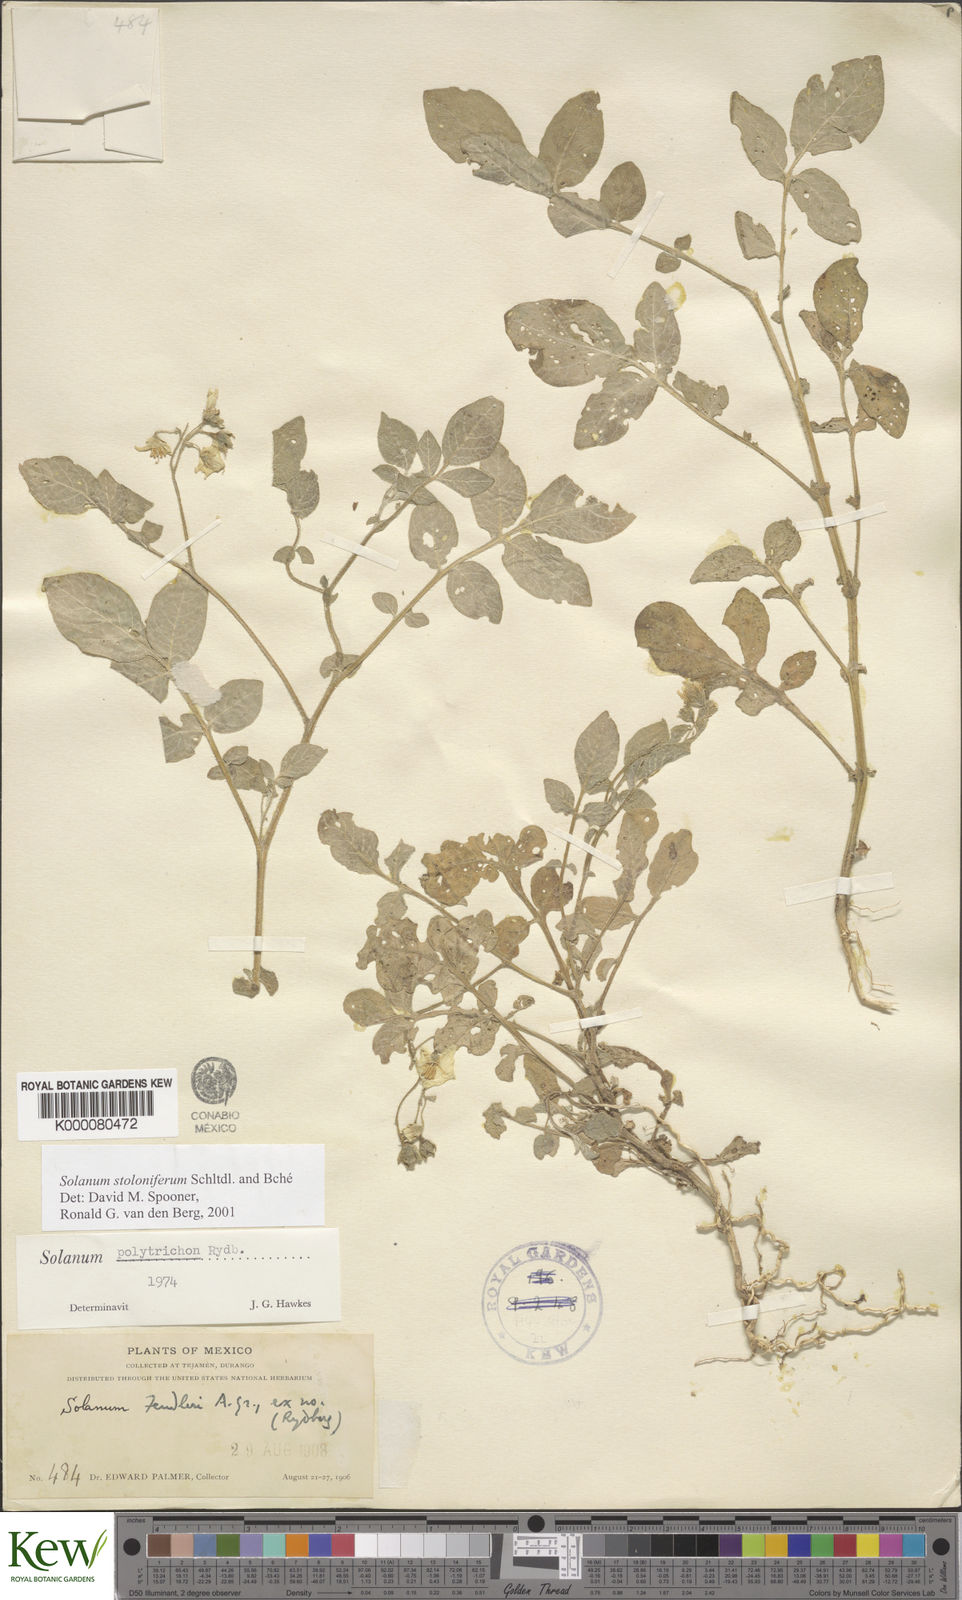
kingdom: Plantae
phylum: Tracheophyta
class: Magnoliopsida
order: Solanales
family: Solanaceae
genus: Solanum
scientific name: Solanum stoloniferum
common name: Fendler's nighshade
